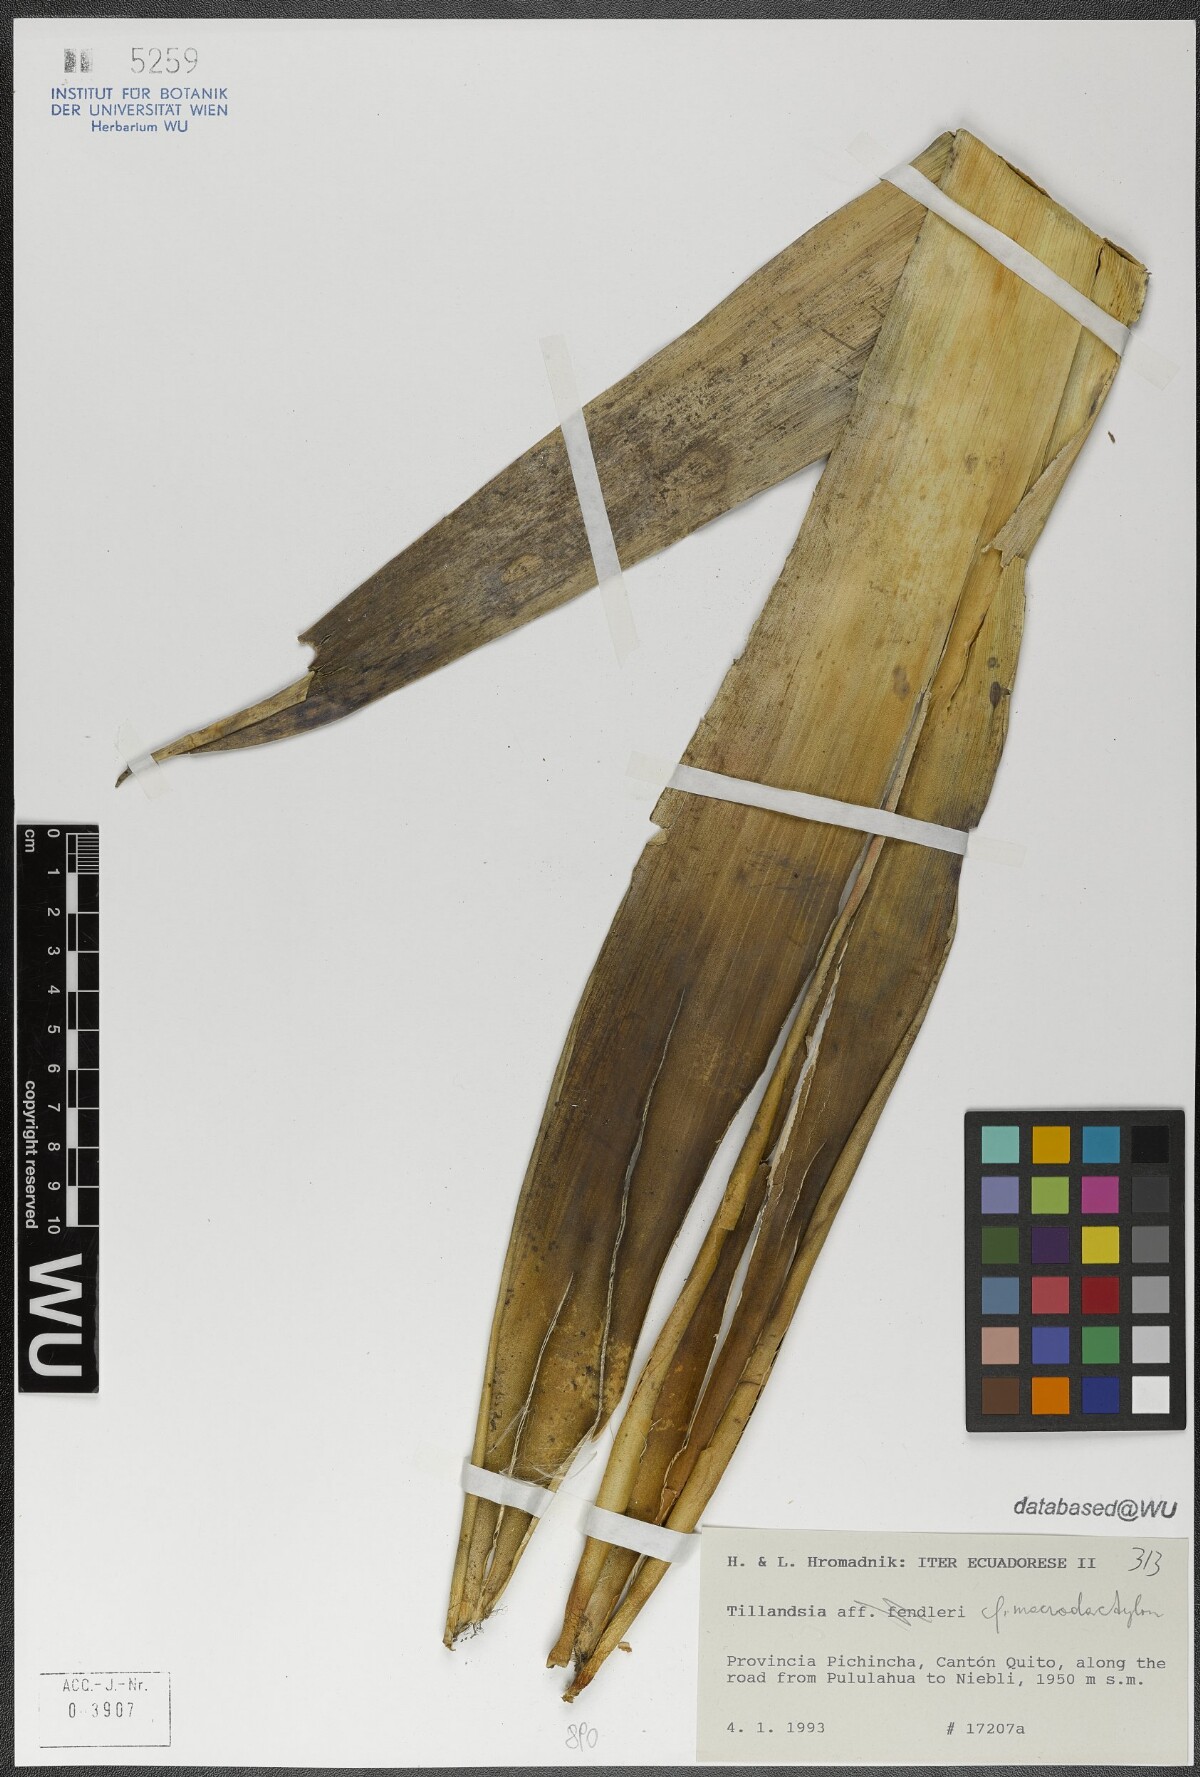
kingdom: Plantae
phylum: Tracheophyta
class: Liliopsida
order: Poales
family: Bromeliaceae
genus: Tillandsia
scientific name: Tillandsia macrodactylon
